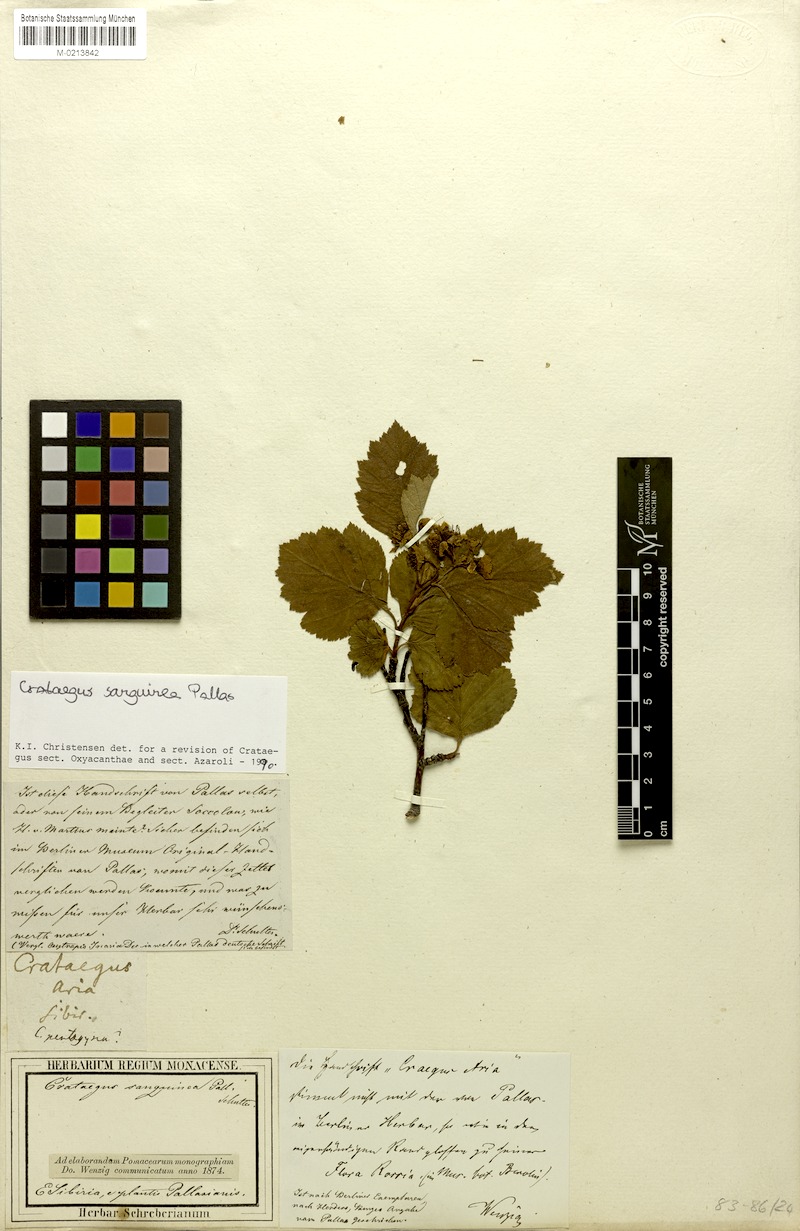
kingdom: Plantae
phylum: Tracheophyta
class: Magnoliopsida
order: Rosales
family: Rosaceae
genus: Crataegus
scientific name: Crataegus sanguinea
